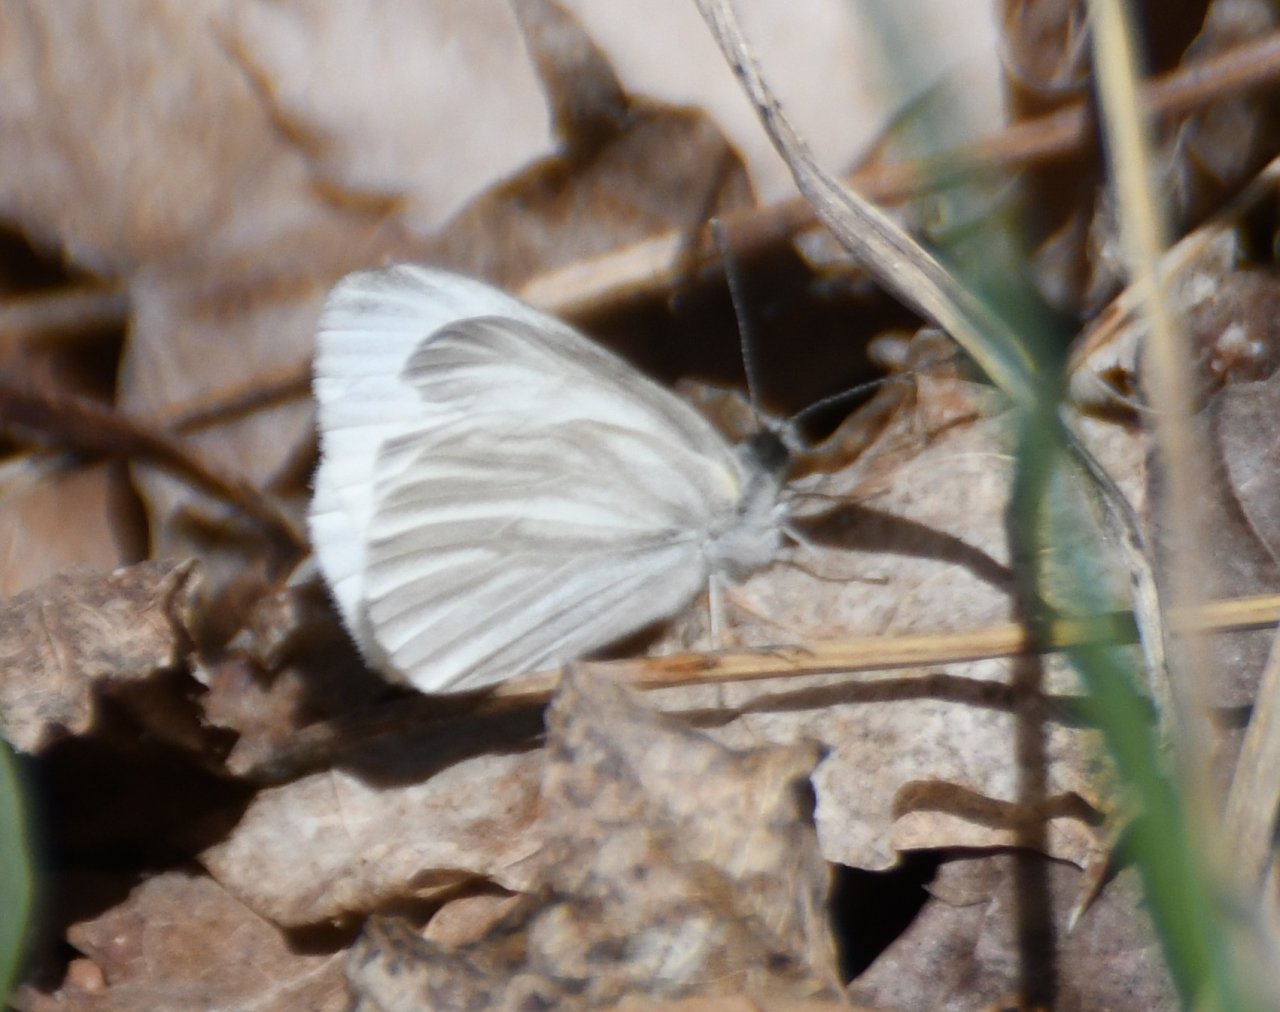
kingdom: Animalia
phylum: Arthropoda
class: Insecta
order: Lepidoptera
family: Pieridae
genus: Pieris
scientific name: Pieris virginiensis
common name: West Virginia White
